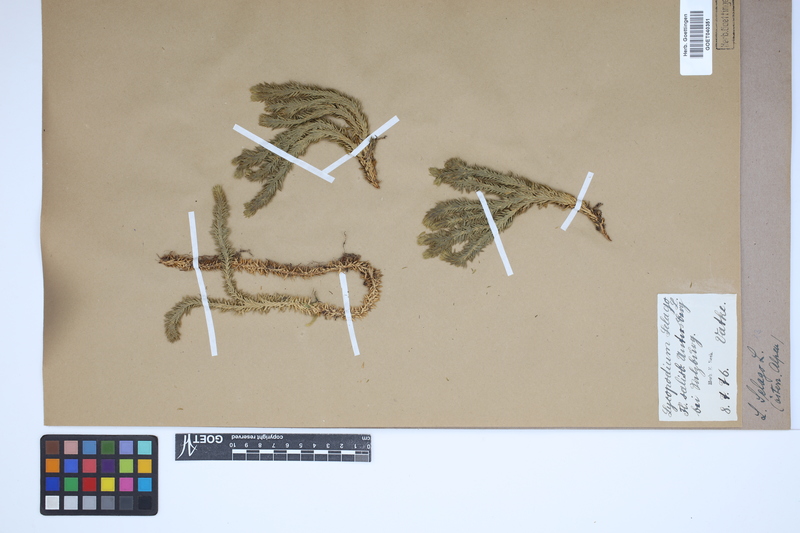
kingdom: Plantae
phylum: Tracheophyta
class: Lycopodiopsida
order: Lycopodiales
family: Lycopodiaceae
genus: Huperzia
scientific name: Huperzia selago
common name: Northern firmoss
